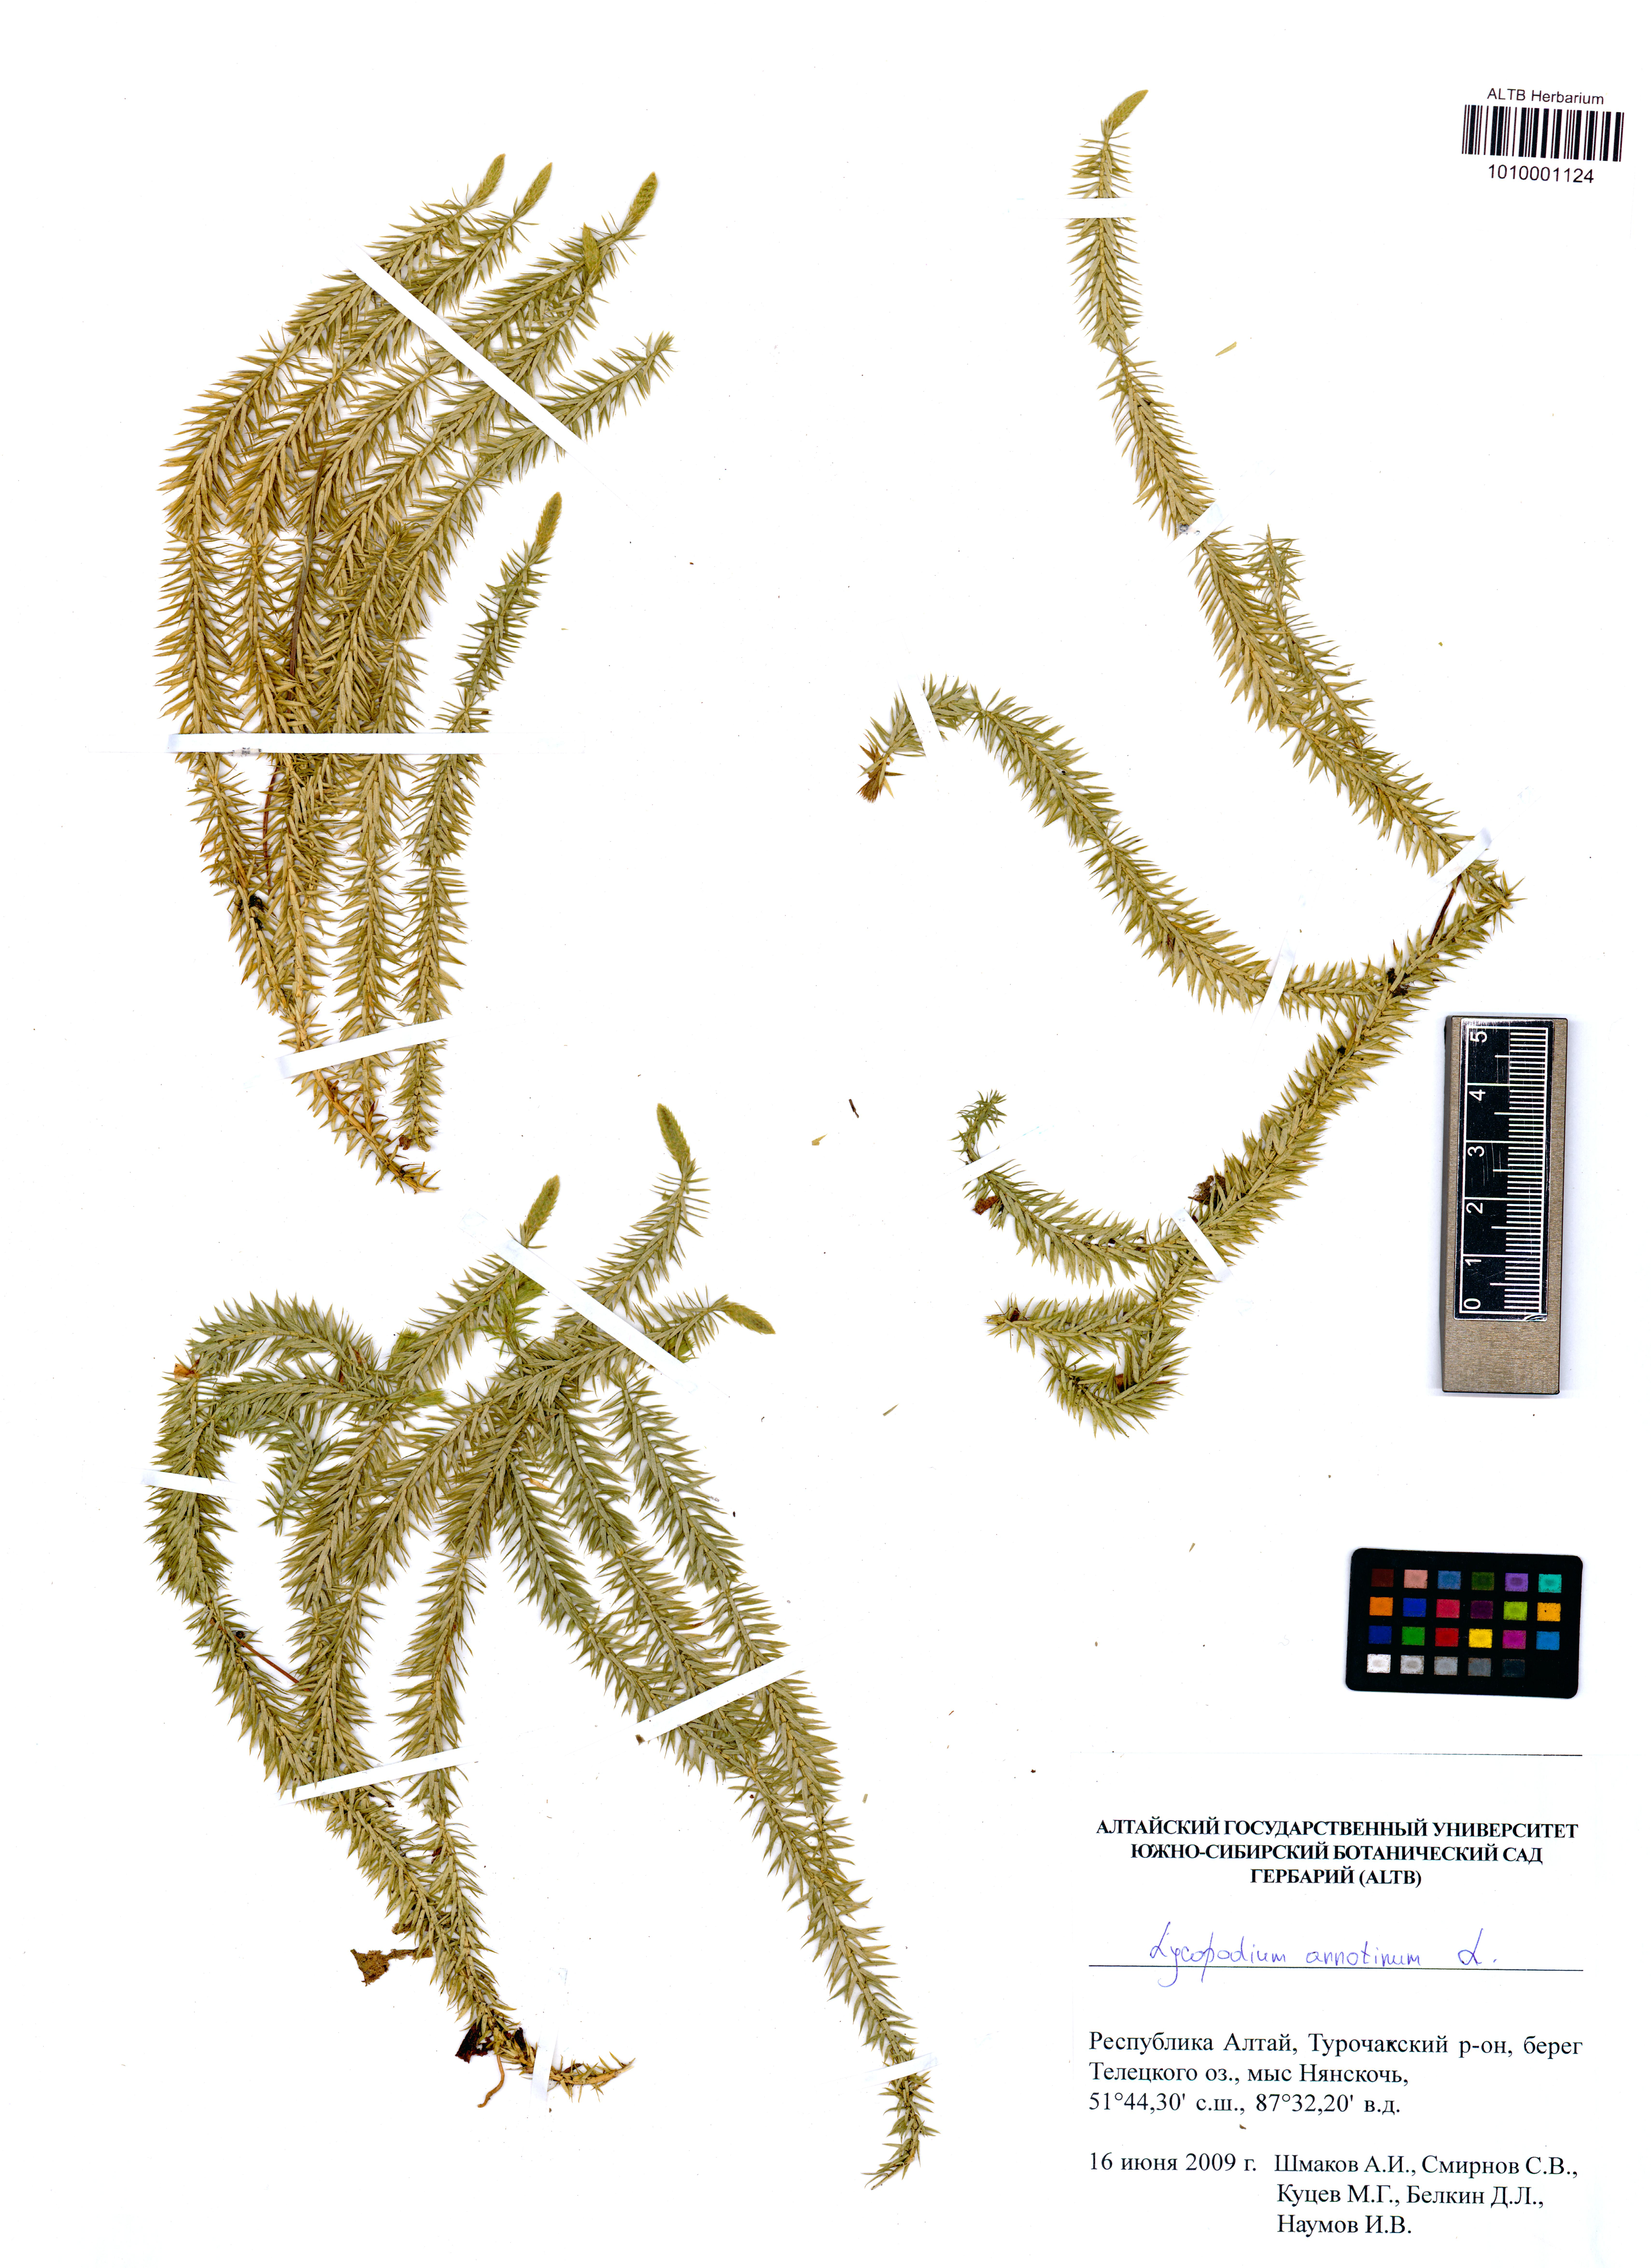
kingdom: Plantae
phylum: Tracheophyta
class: Lycopodiopsida
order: Lycopodiales
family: Lycopodiaceae
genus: Spinulum
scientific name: Spinulum annotinum
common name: Interrupted club-moss
